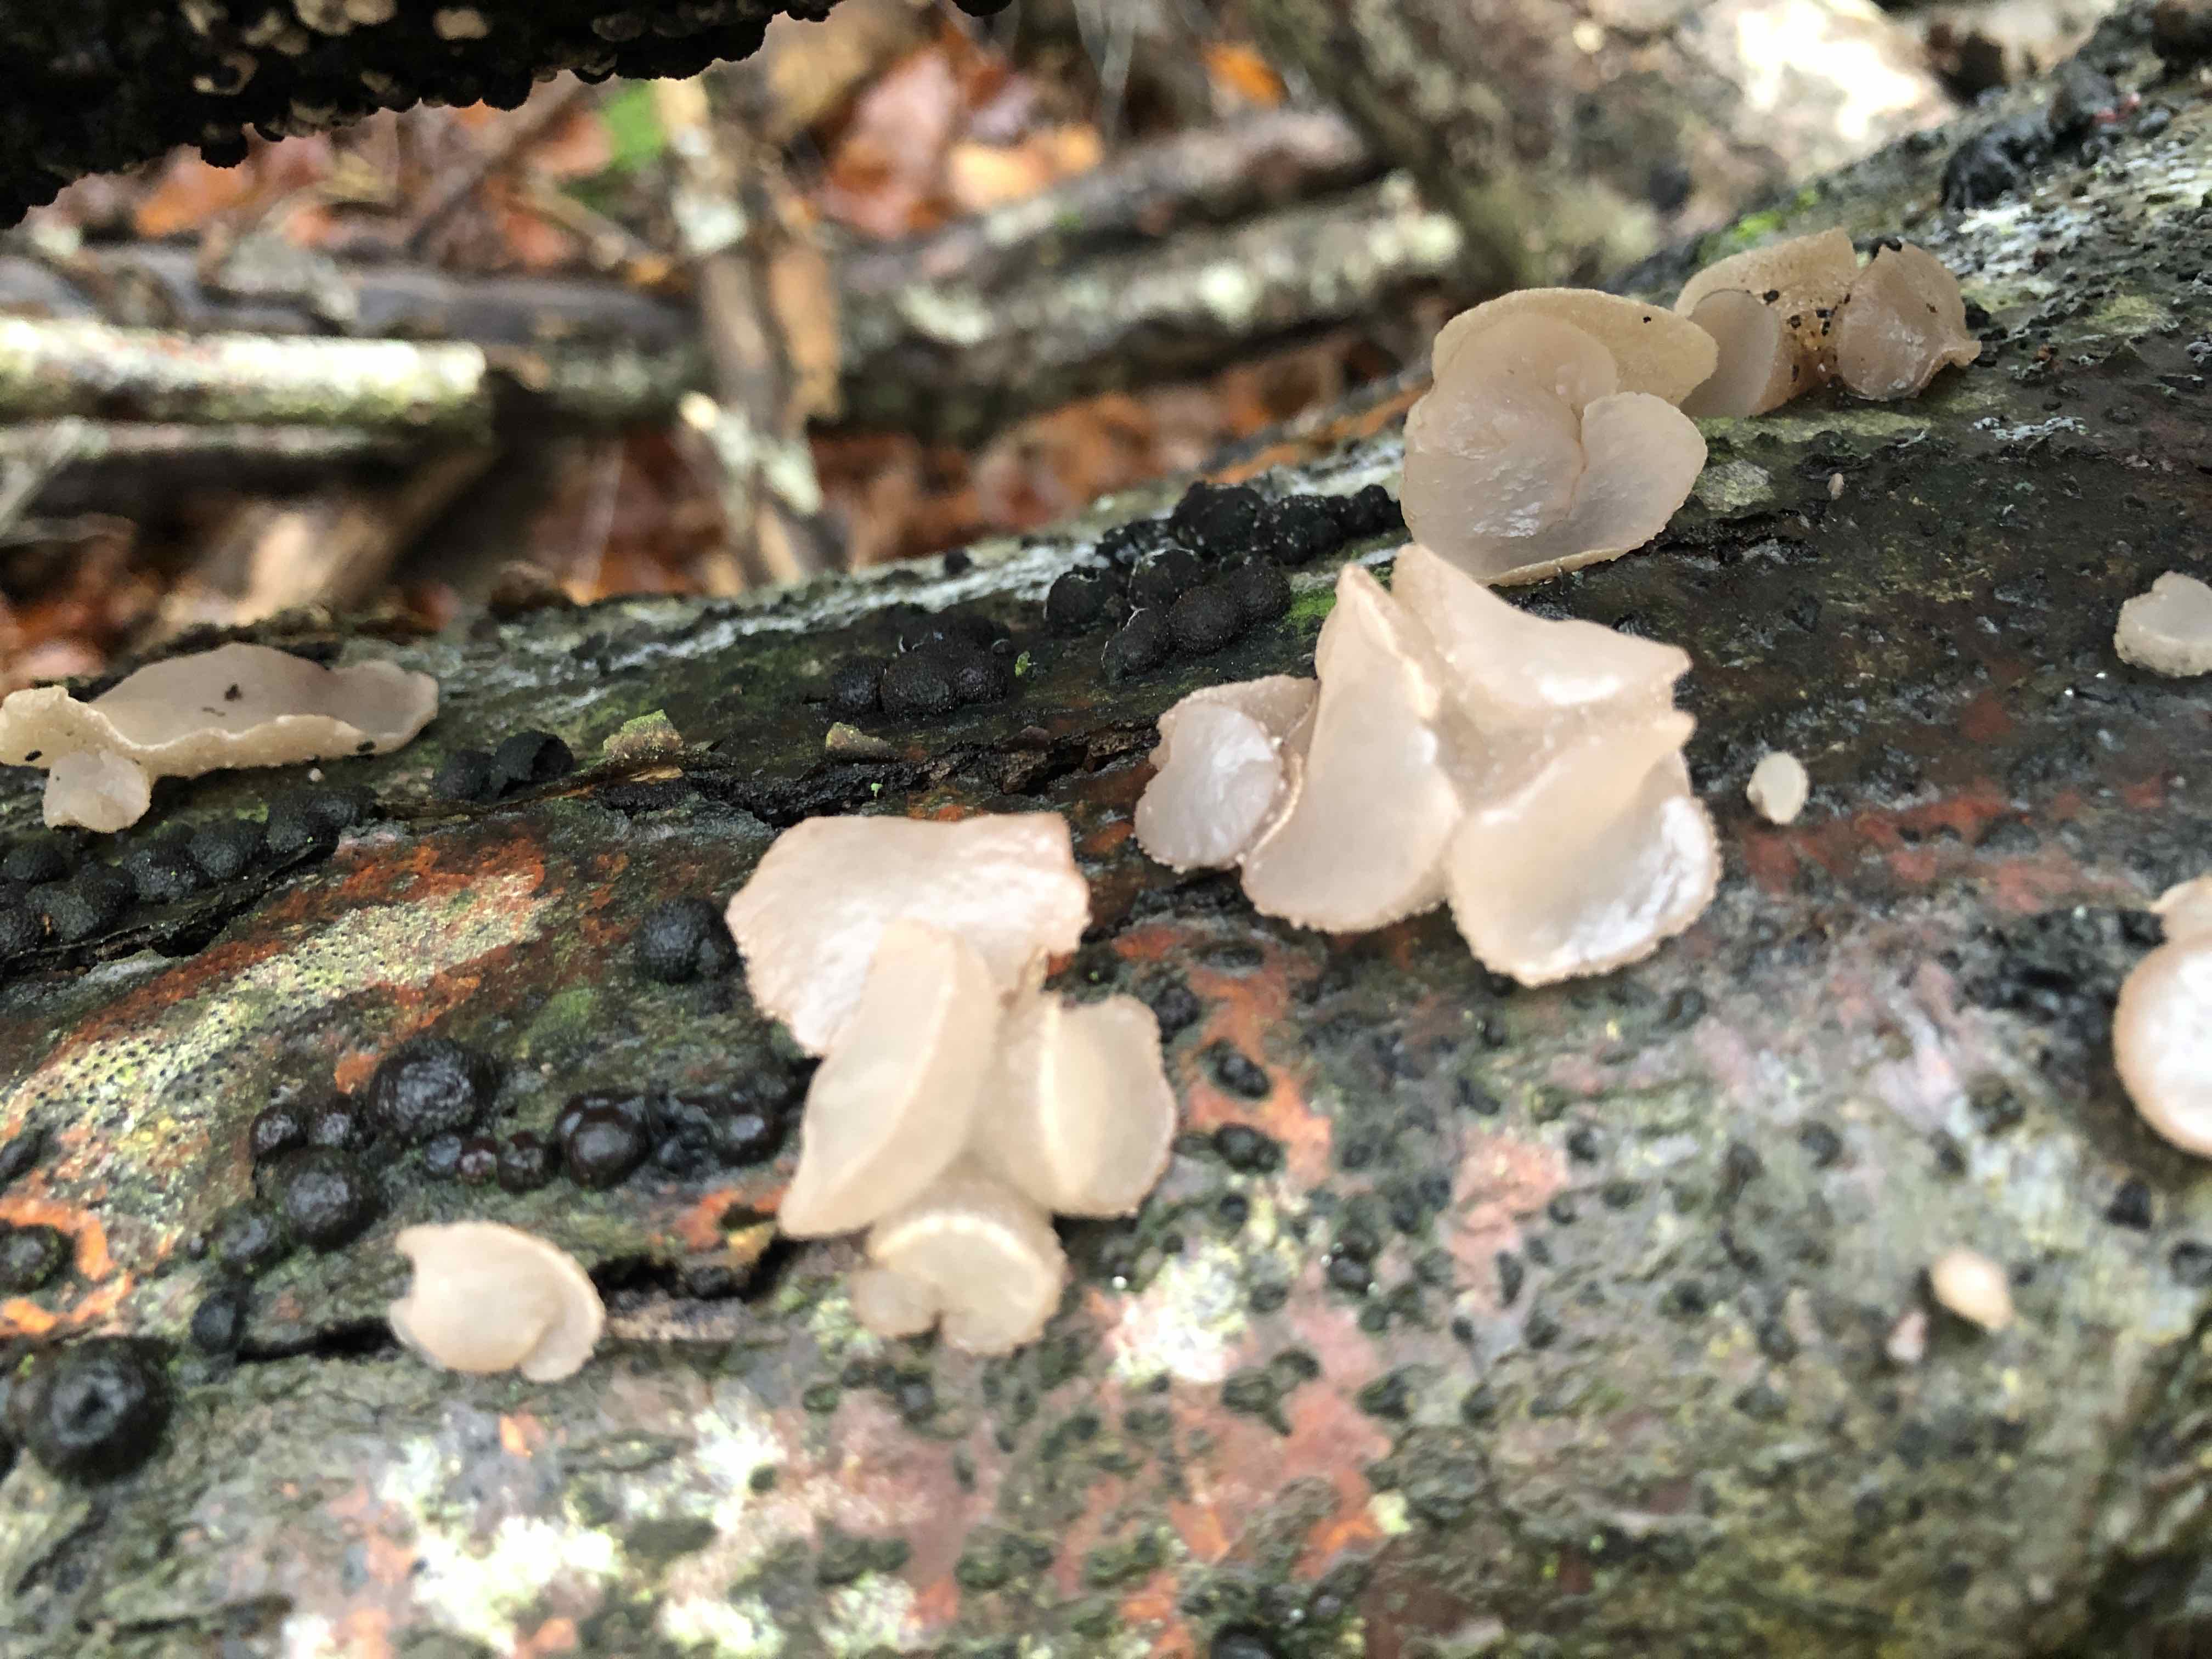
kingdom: Fungi
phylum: Ascomycota
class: Leotiomycetes
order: Helotiales
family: Gelatinodiscaceae
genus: Neobulgaria
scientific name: Neobulgaria pura
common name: bleg bævreskive
